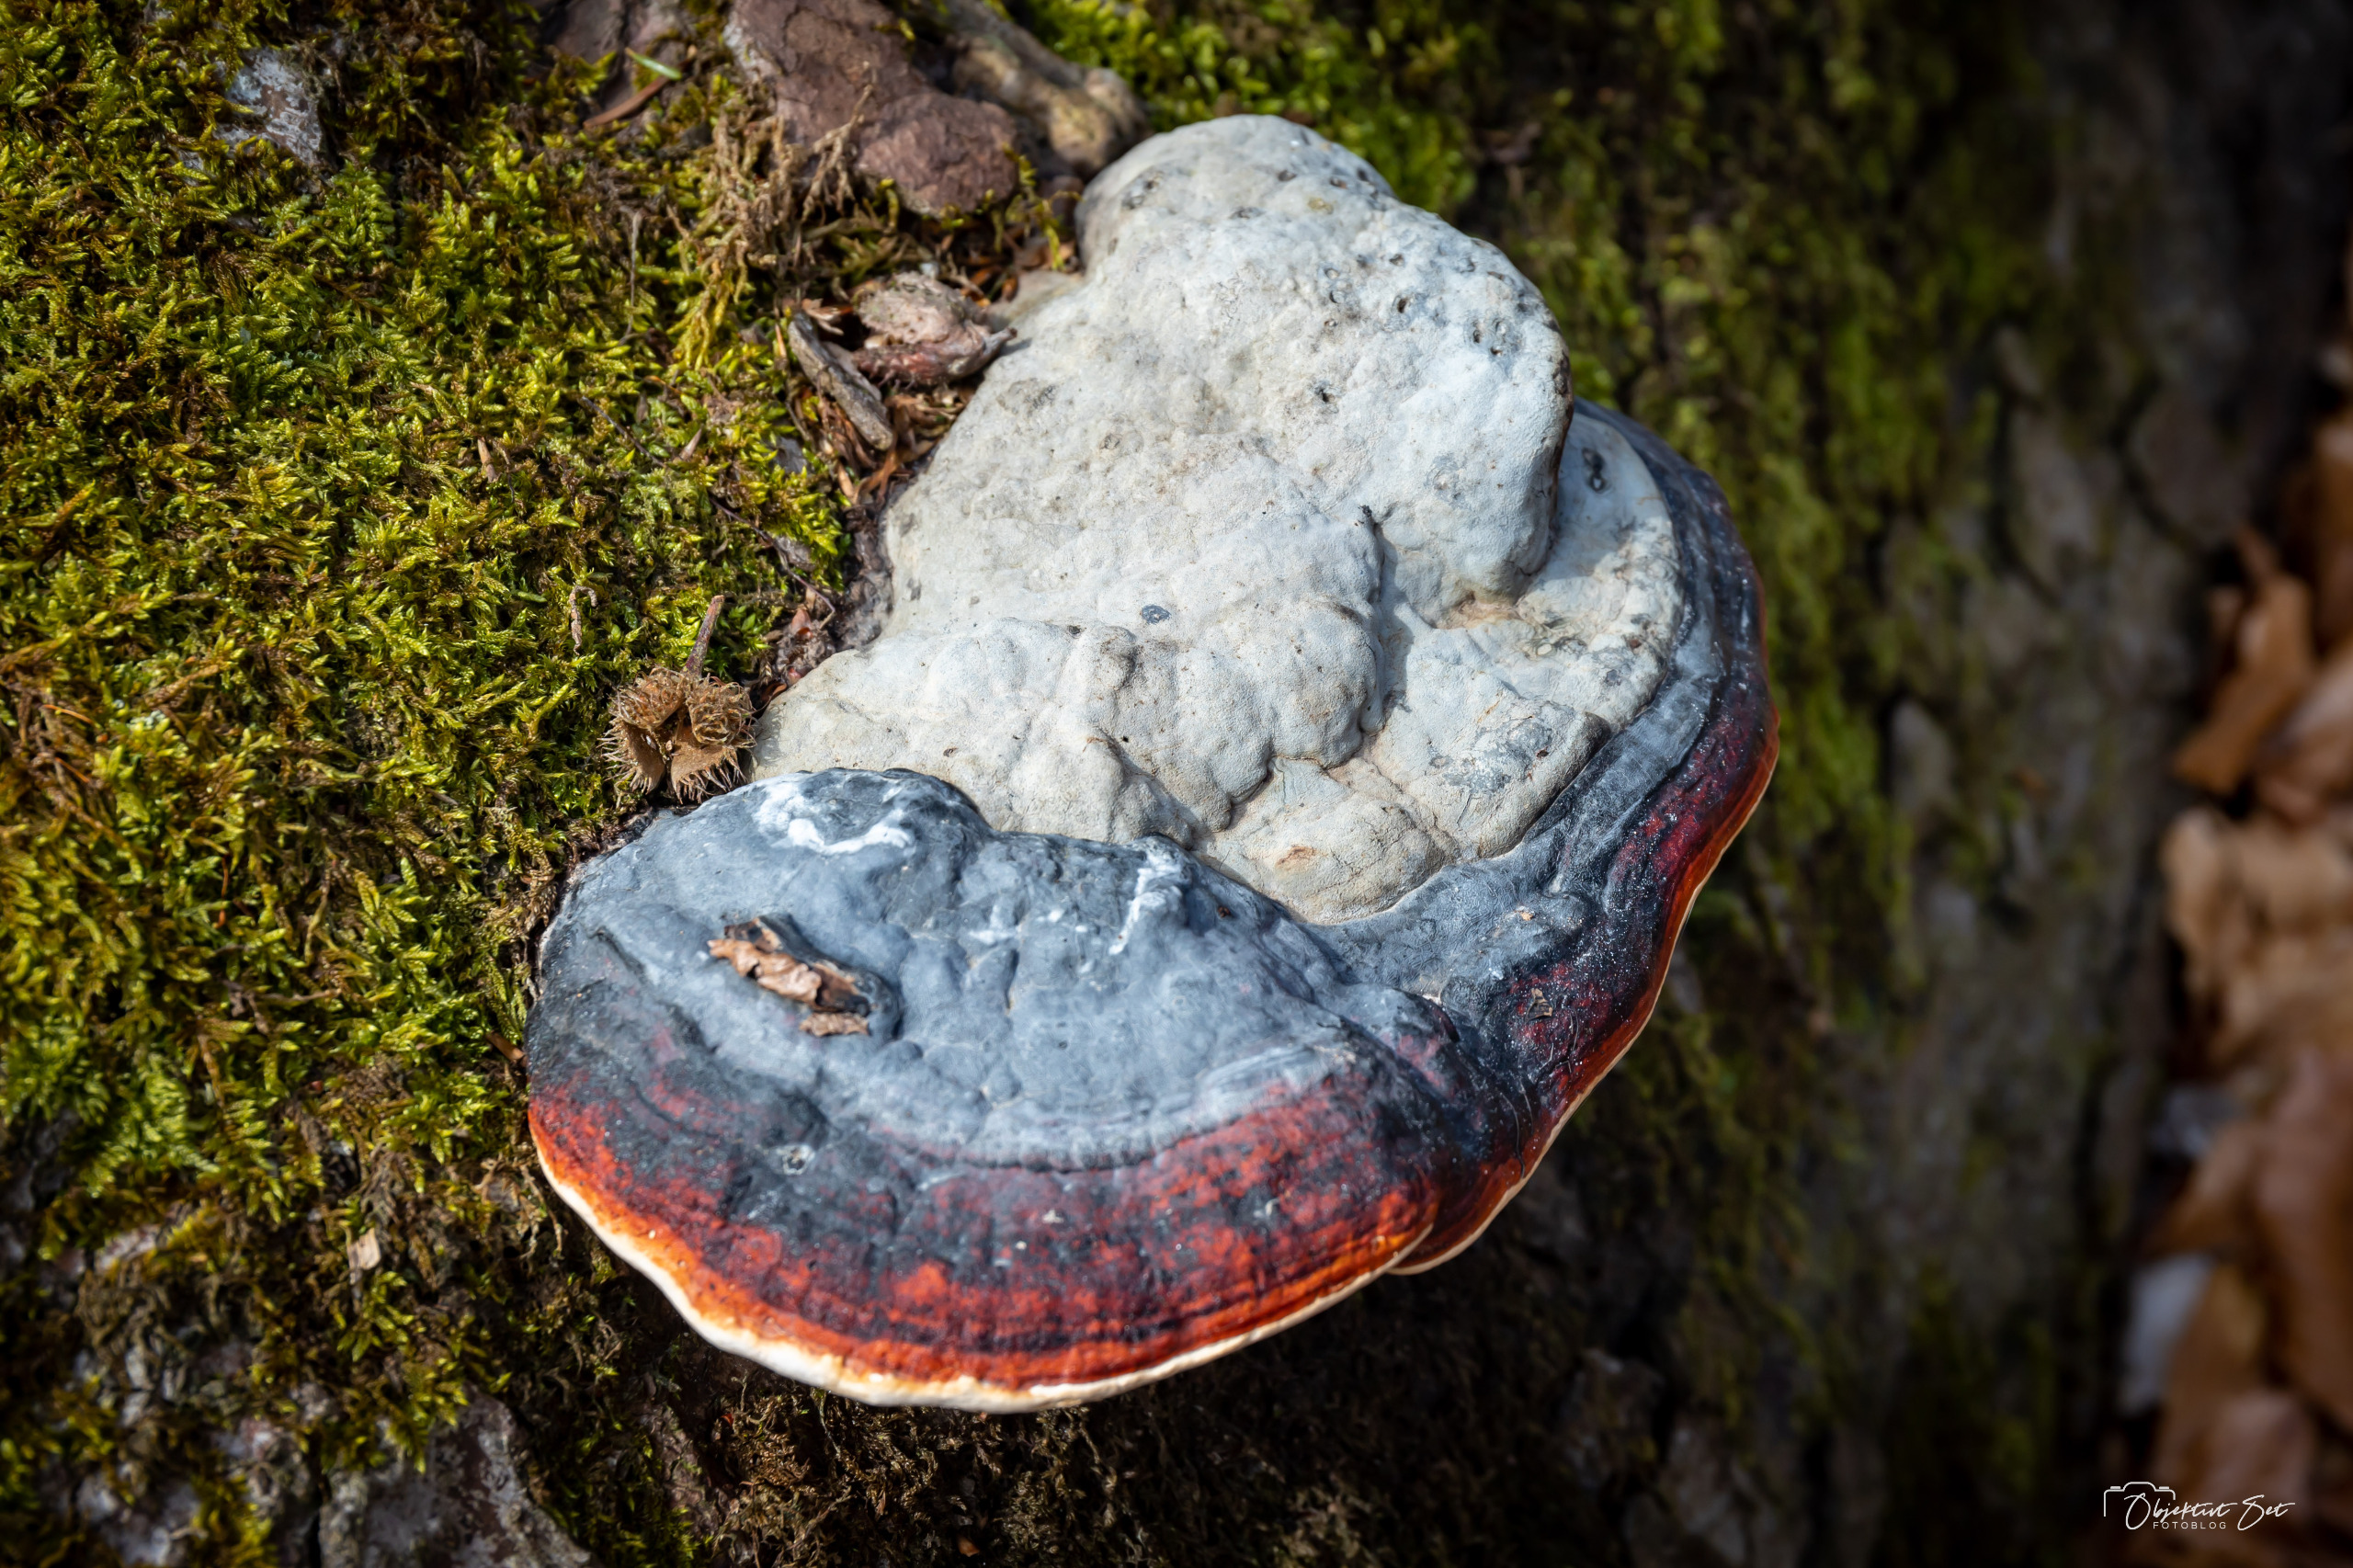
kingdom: Fungi
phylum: Basidiomycota
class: Agaricomycetes
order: Polyporales
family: Fomitopsidaceae
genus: Fomitopsis
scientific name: Fomitopsis pinicola
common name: Randbæltet hovporesvamp
